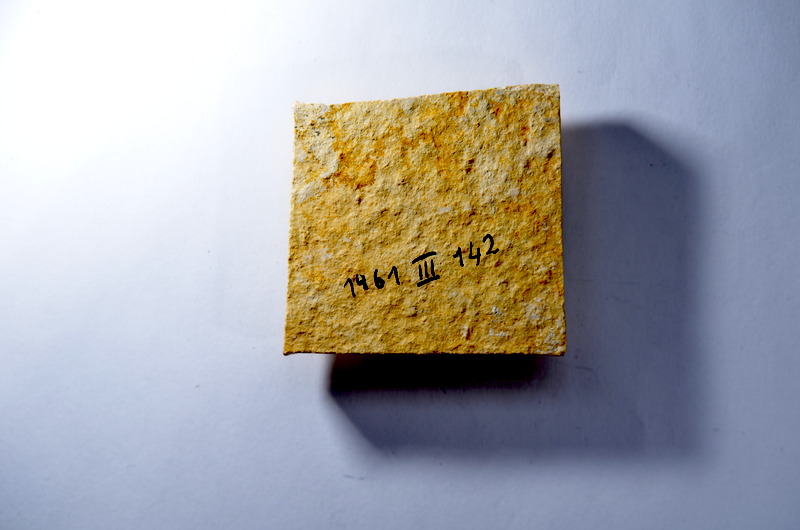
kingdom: Animalia
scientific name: Animalia
